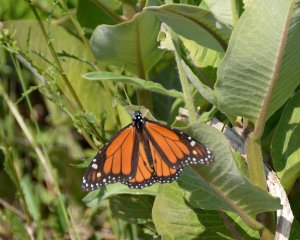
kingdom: Animalia
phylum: Arthropoda
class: Insecta
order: Lepidoptera
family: Nymphalidae
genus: Danaus
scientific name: Danaus plexippus
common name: Monarch
